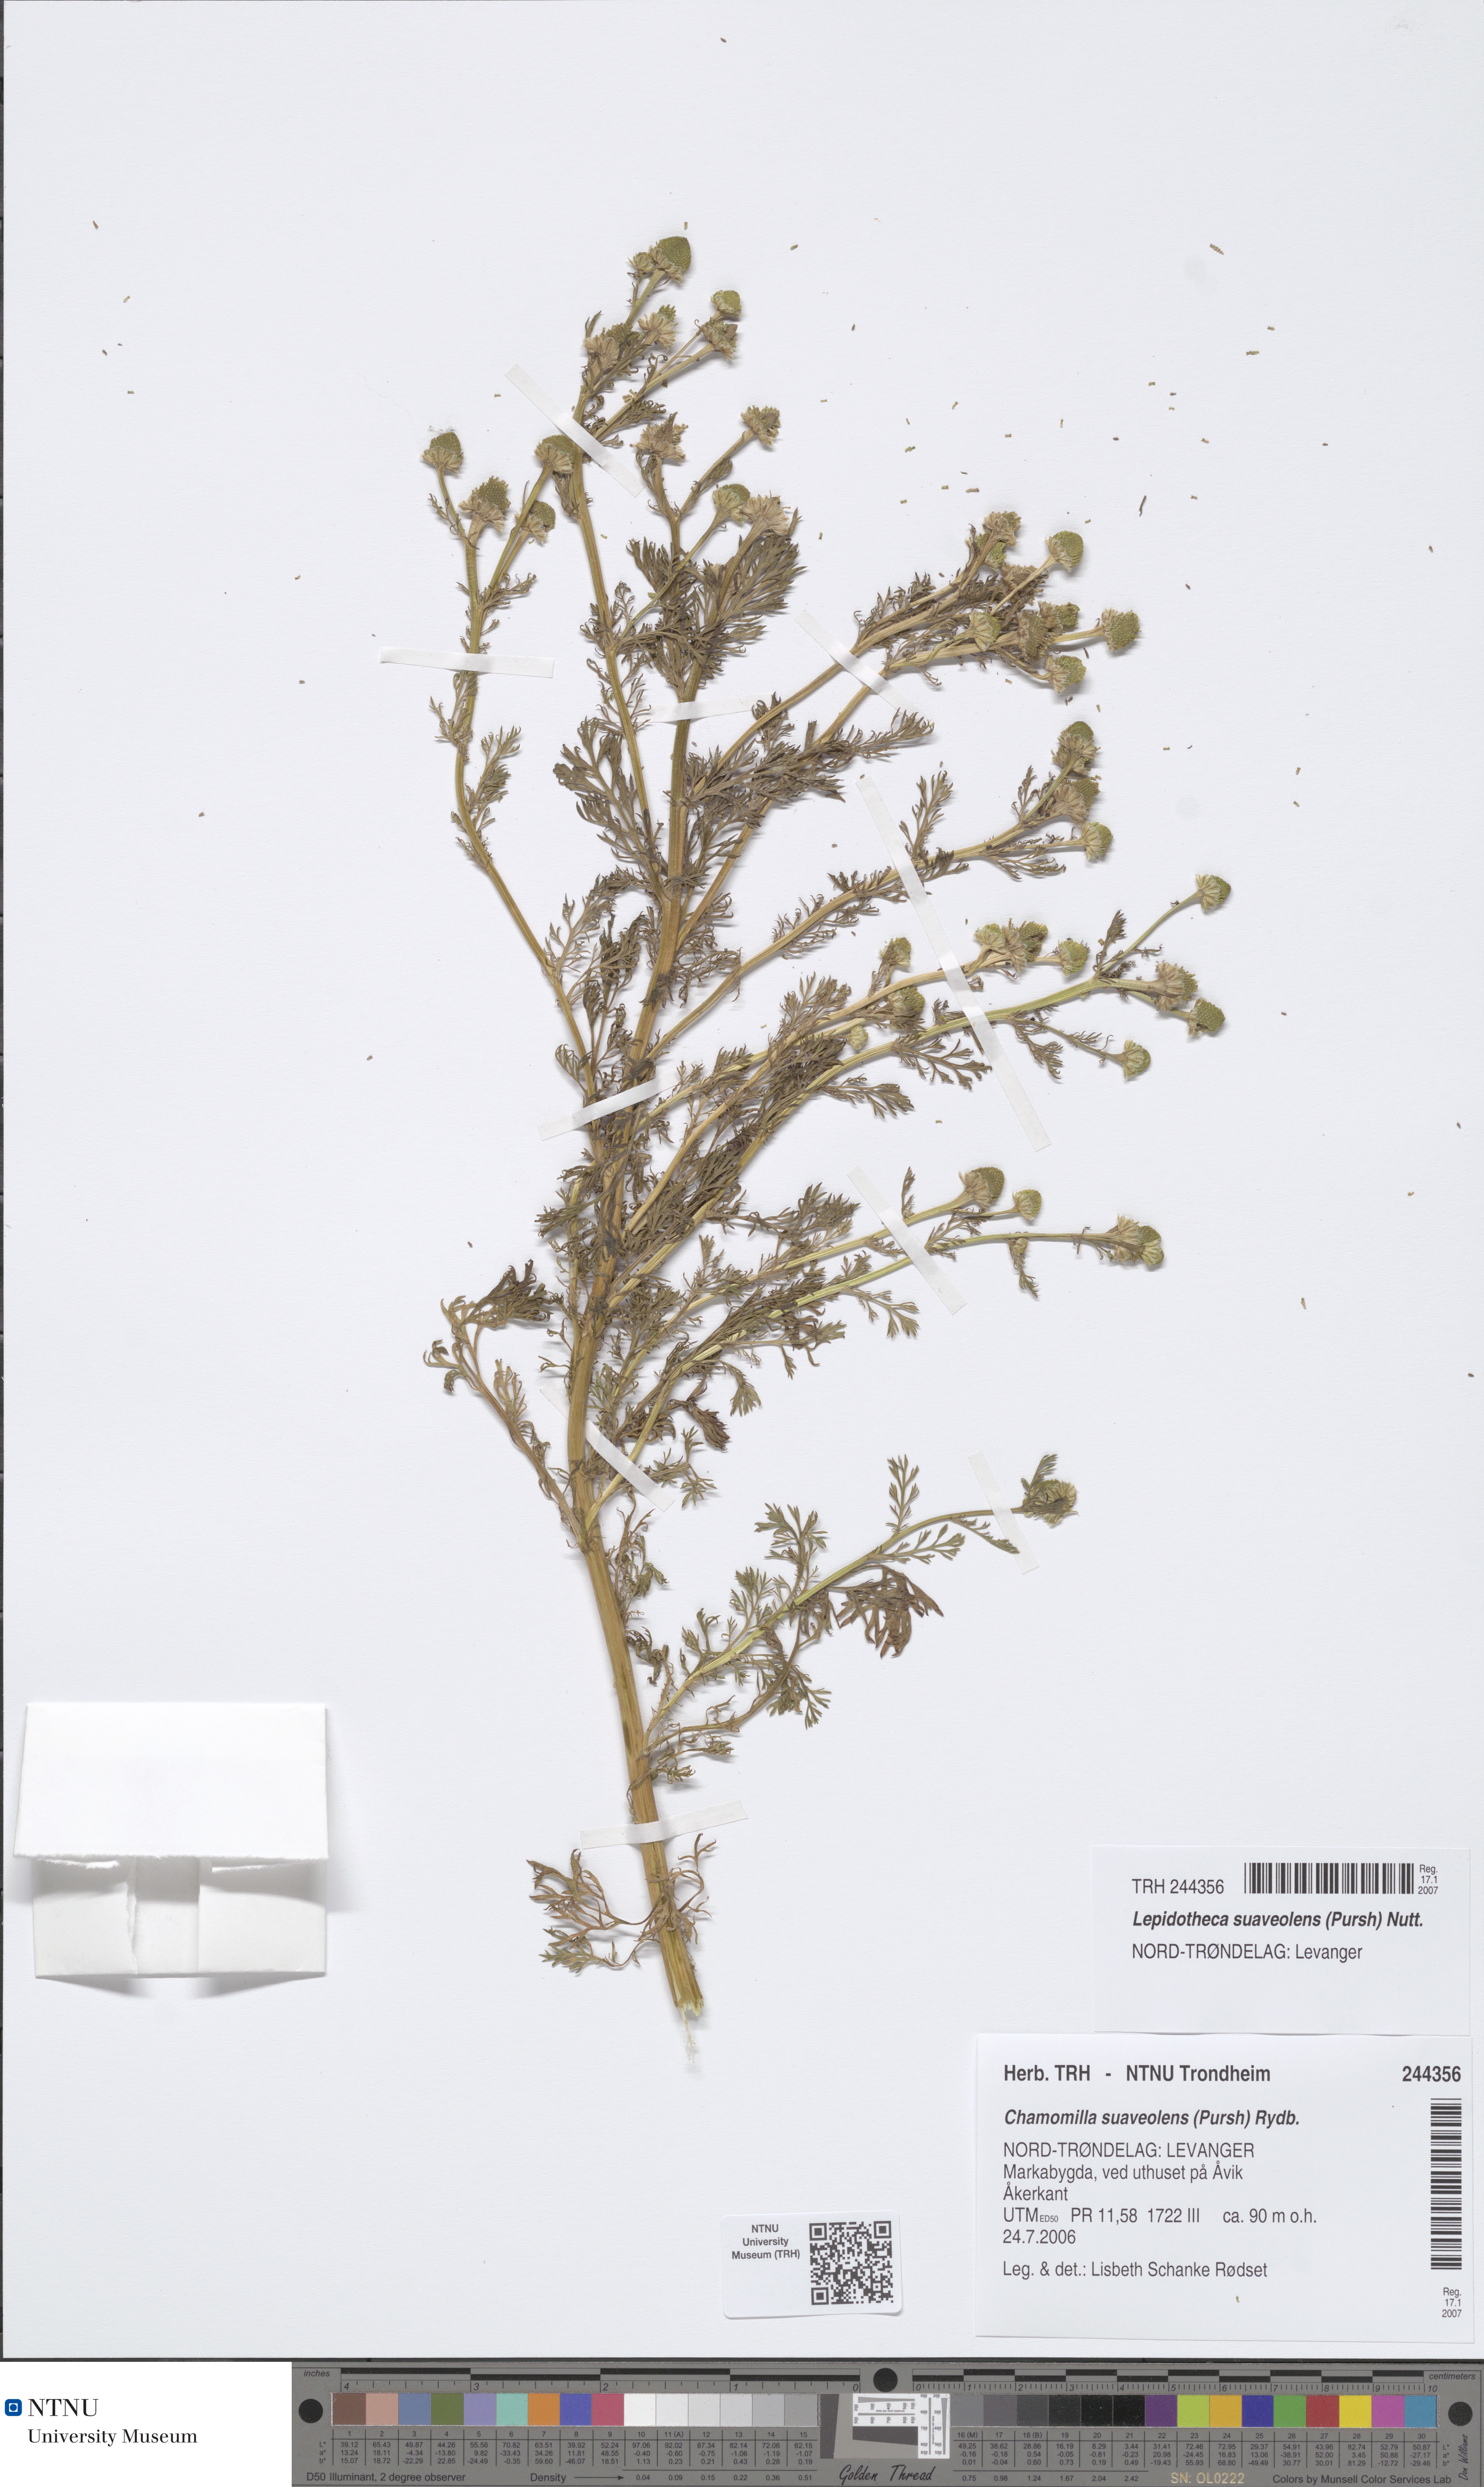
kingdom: Plantae
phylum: Tracheophyta
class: Magnoliopsida
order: Asterales
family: Asteraceae
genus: Matricaria
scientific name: Matricaria discoidea
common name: Disc mayweed
